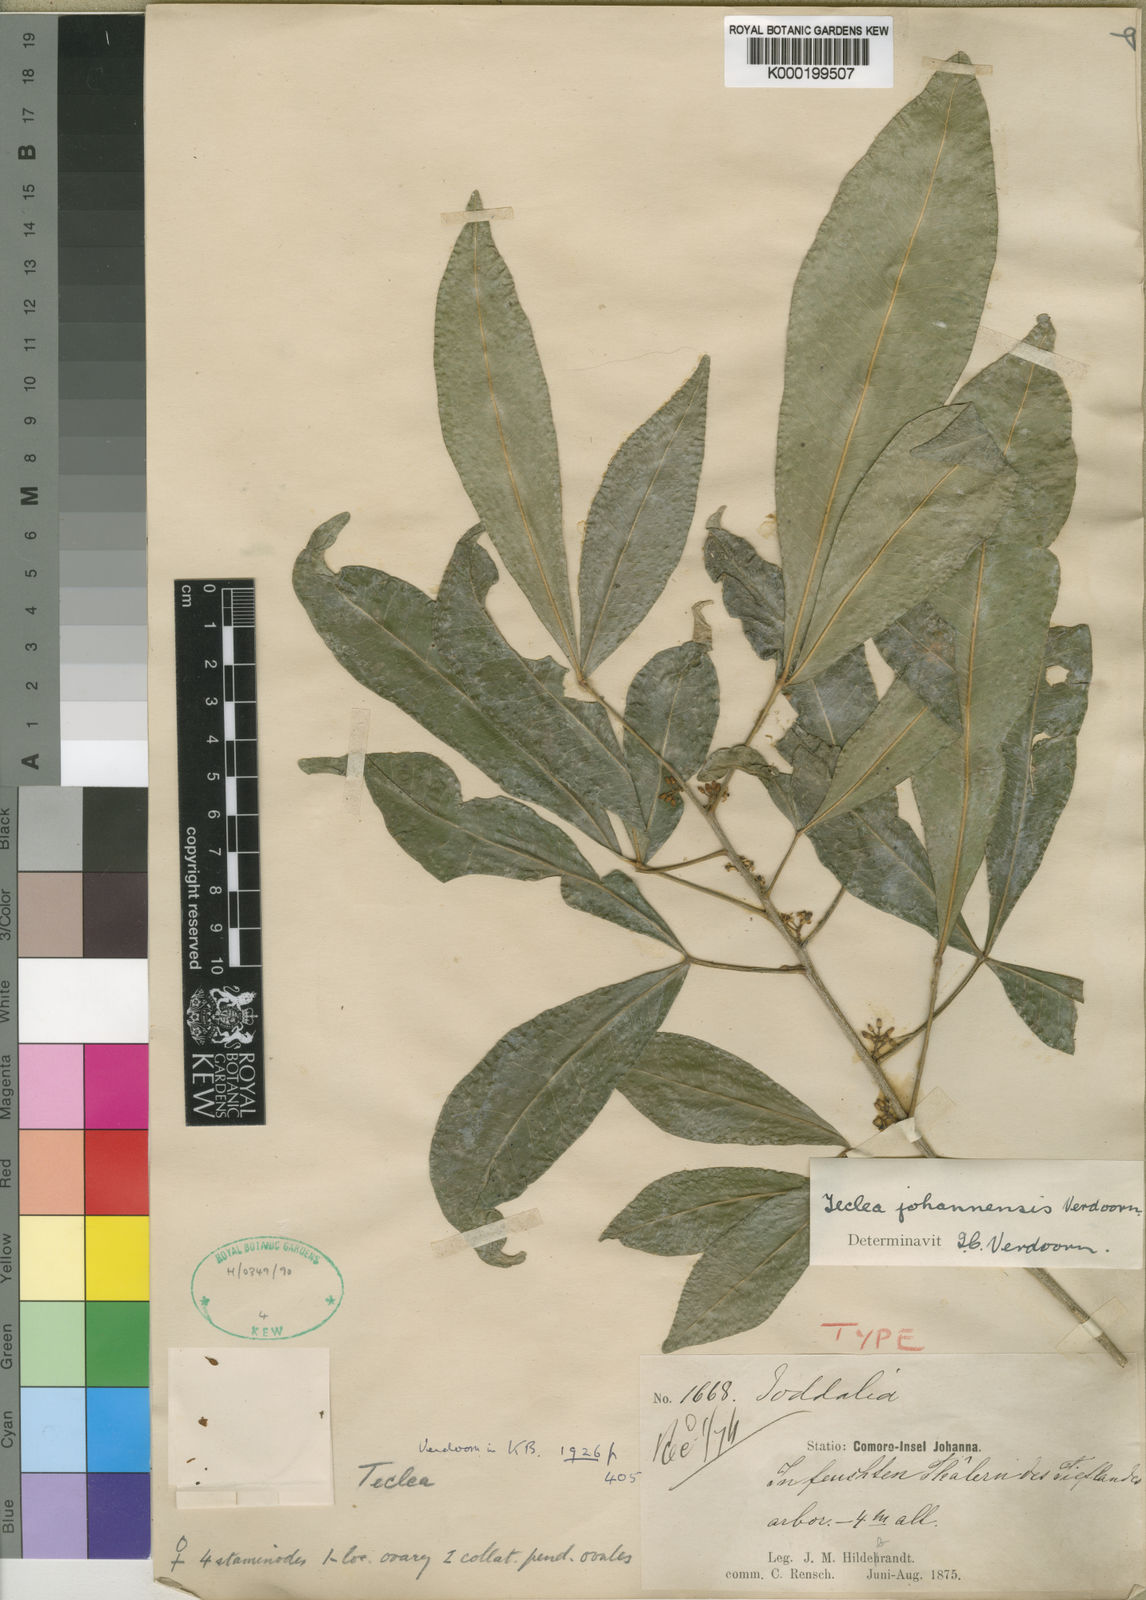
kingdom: Plantae
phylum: Tracheophyta
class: Magnoliopsida
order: Sapindales
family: Rutaceae
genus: Vepris
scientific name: Vepris boiviniana
